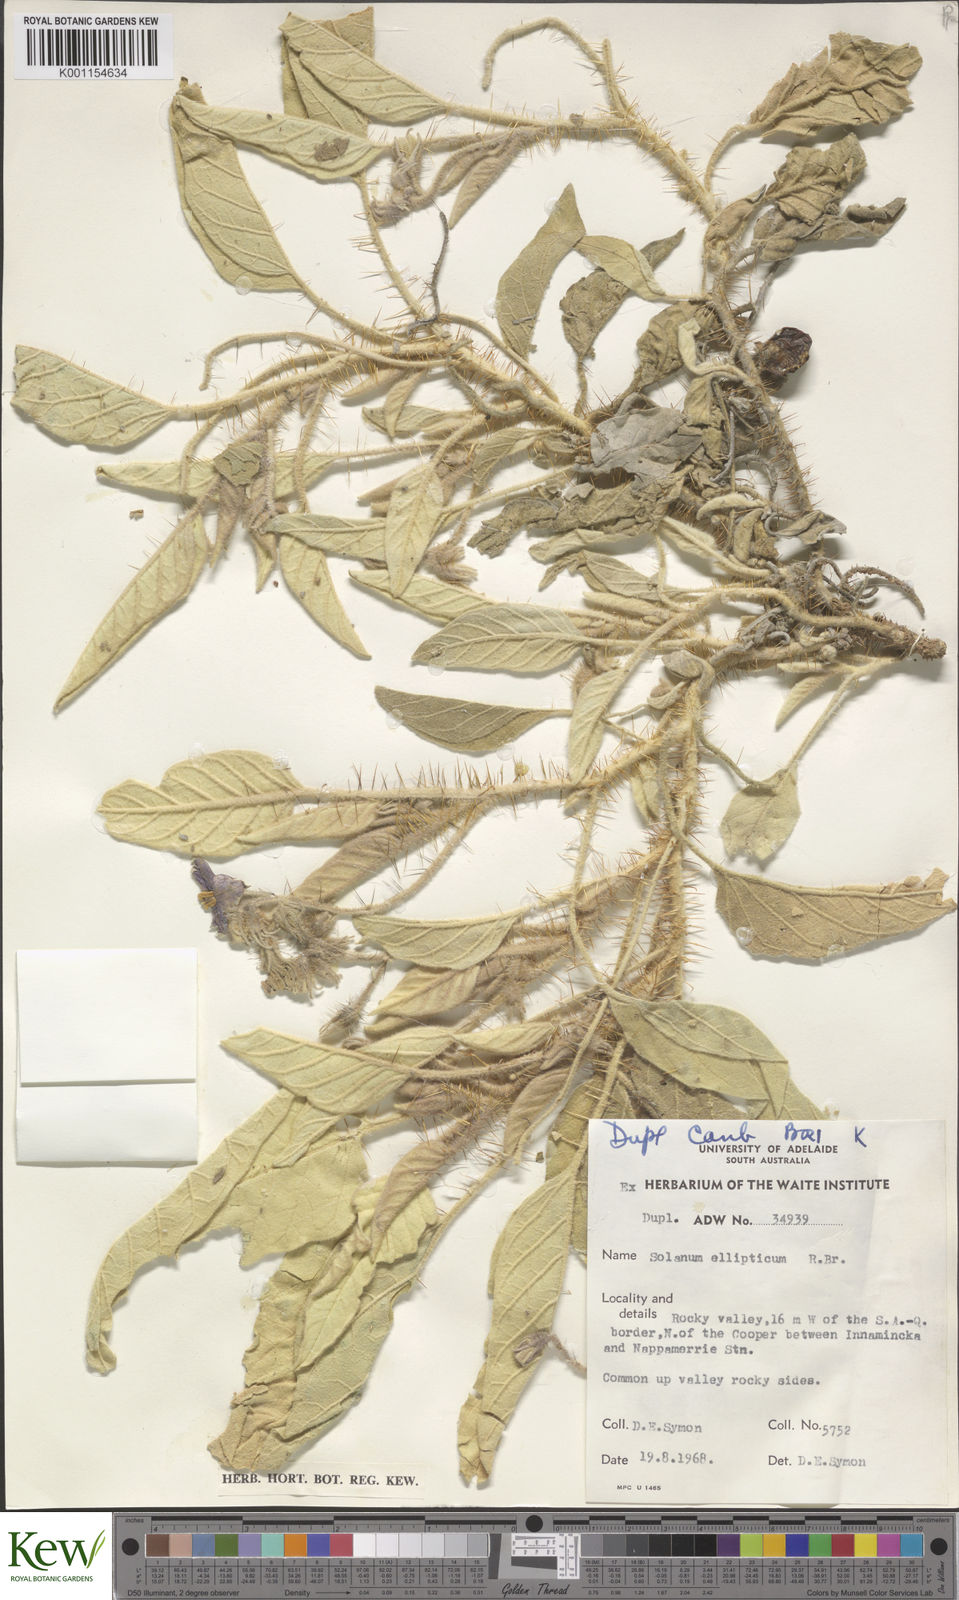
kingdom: Plantae
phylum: Tracheophyta
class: Magnoliopsida
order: Solanales
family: Solanaceae
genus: Solanum
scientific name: Solanum ellipticum
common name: Potato-bush
